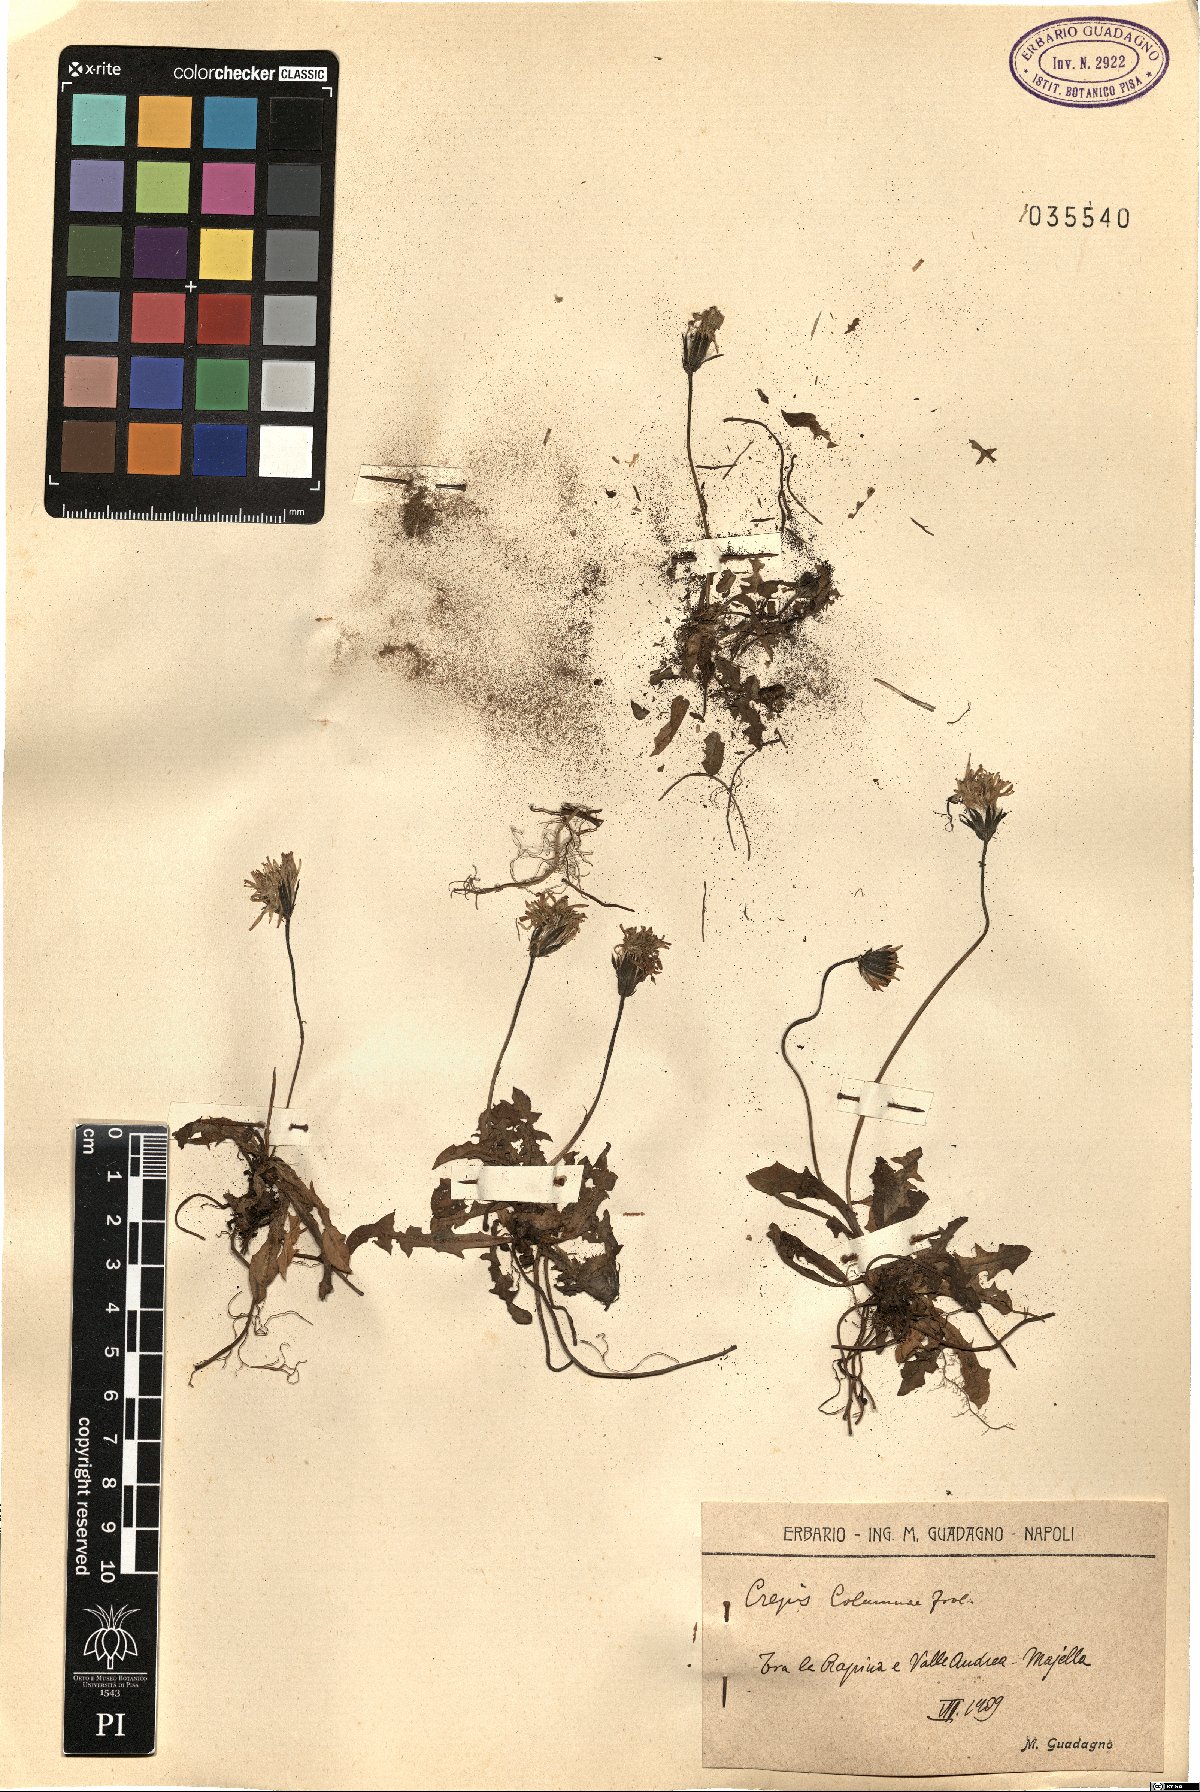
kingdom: Plantae
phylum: Tracheophyta
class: Magnoliopsida
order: Asterales
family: Asteraceae
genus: Crepis
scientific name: Crepis aurea
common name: Golden hawk's-beard
